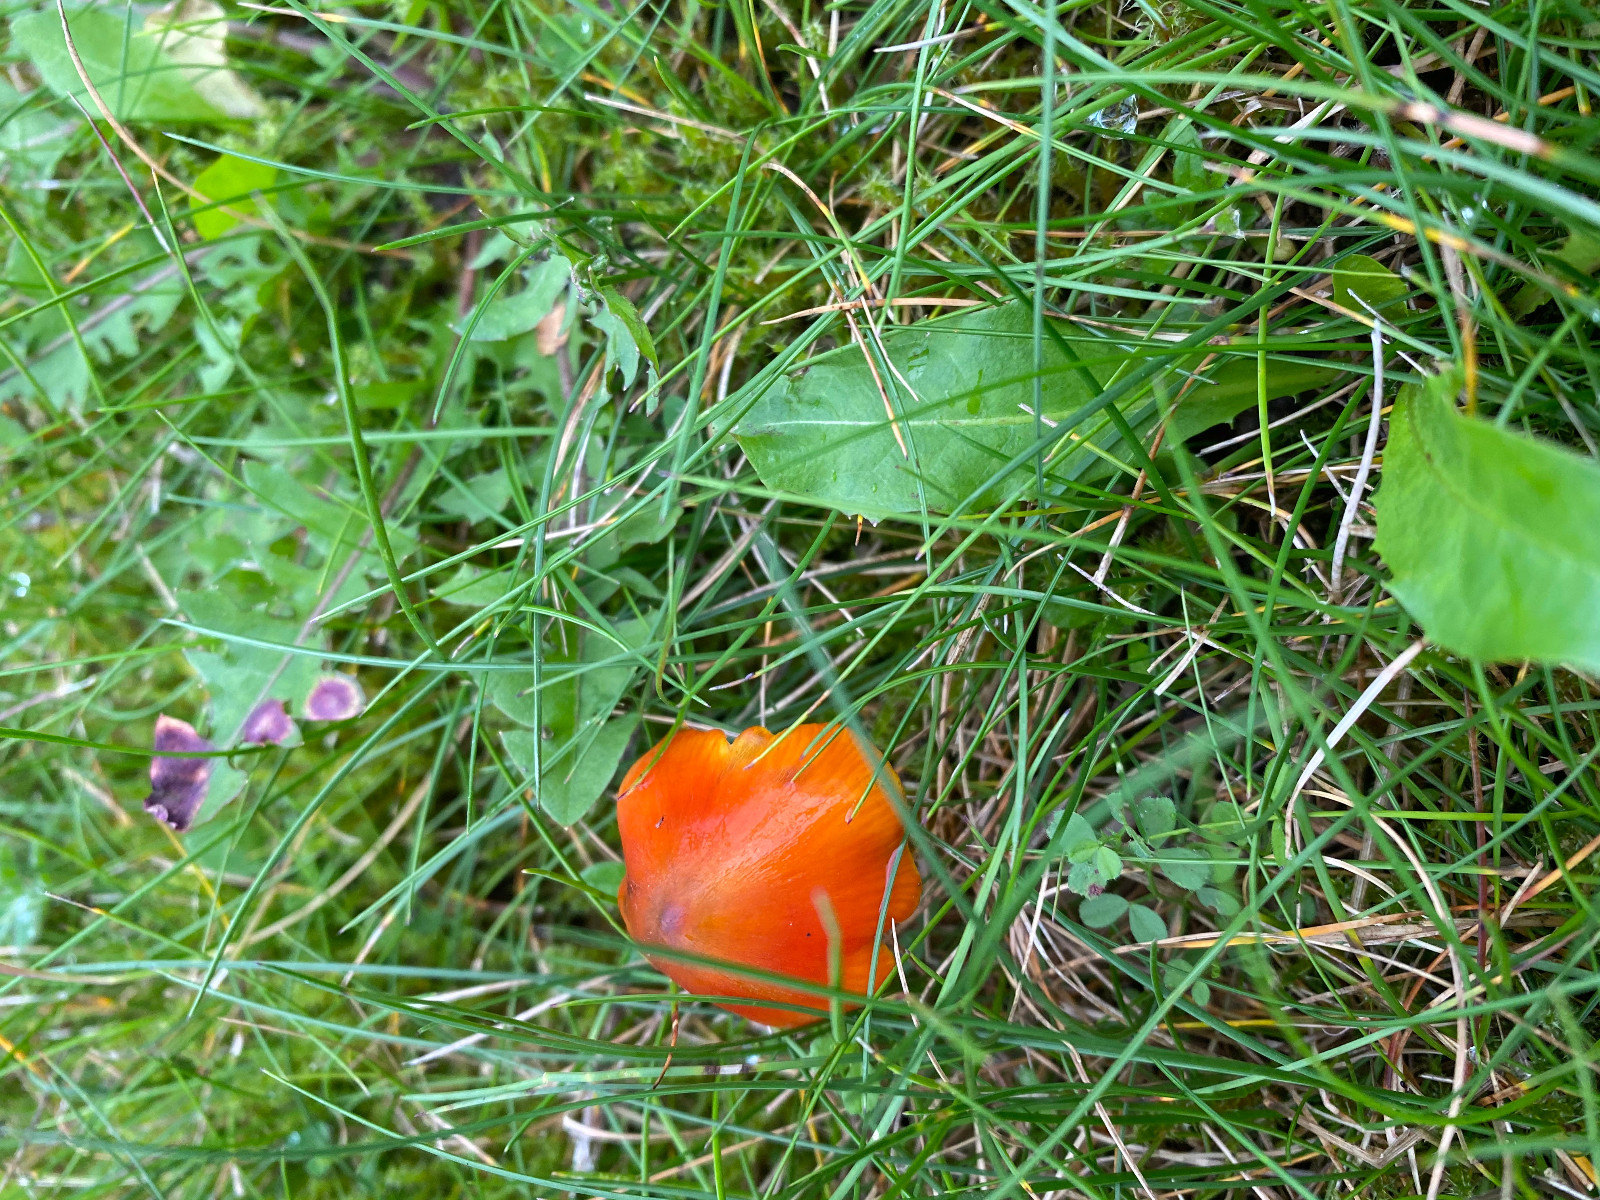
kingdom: Fungi
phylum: Basidiomycota
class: Agaricomycetes
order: Agaricales
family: Hygrophoraceae
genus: Hygrocybe
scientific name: Hygrocybe conica
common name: kegle-vokshat
